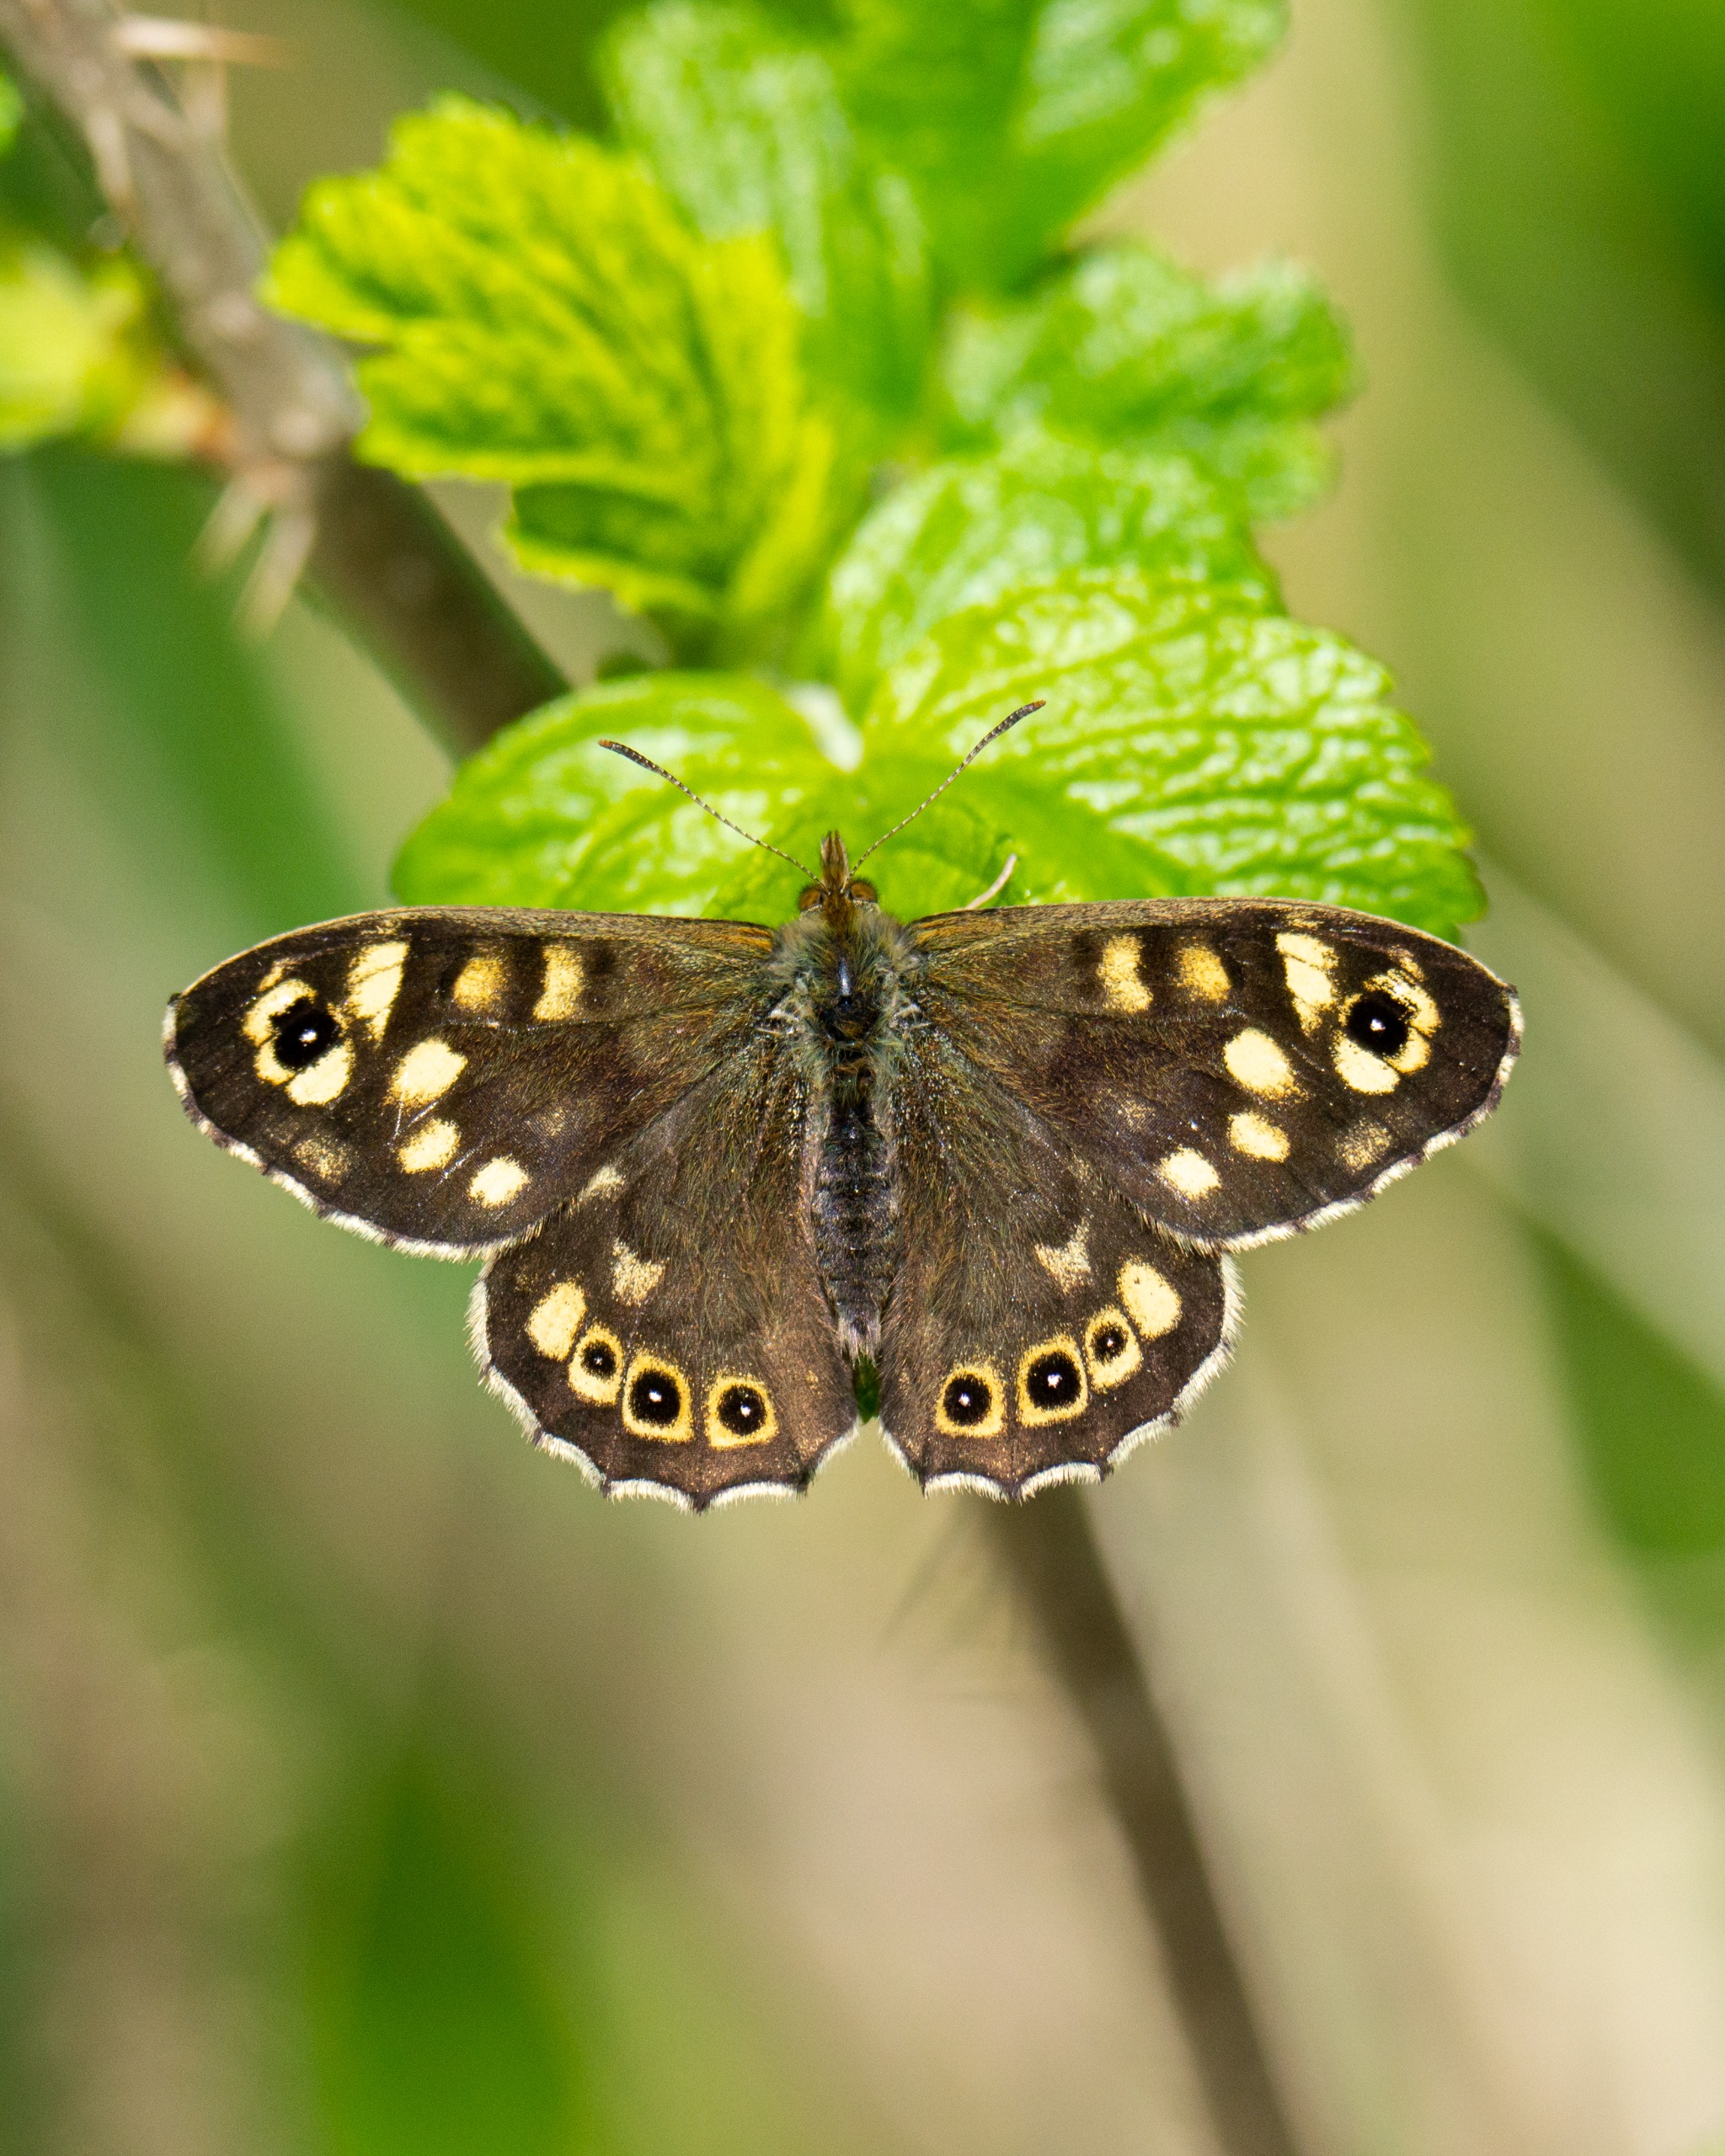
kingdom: Animalia
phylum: Arthropoda
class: Insecta
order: Lepidoptera
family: Nymphalidae
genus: Pararge
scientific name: Pararge aegeria
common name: Skovrandøje
